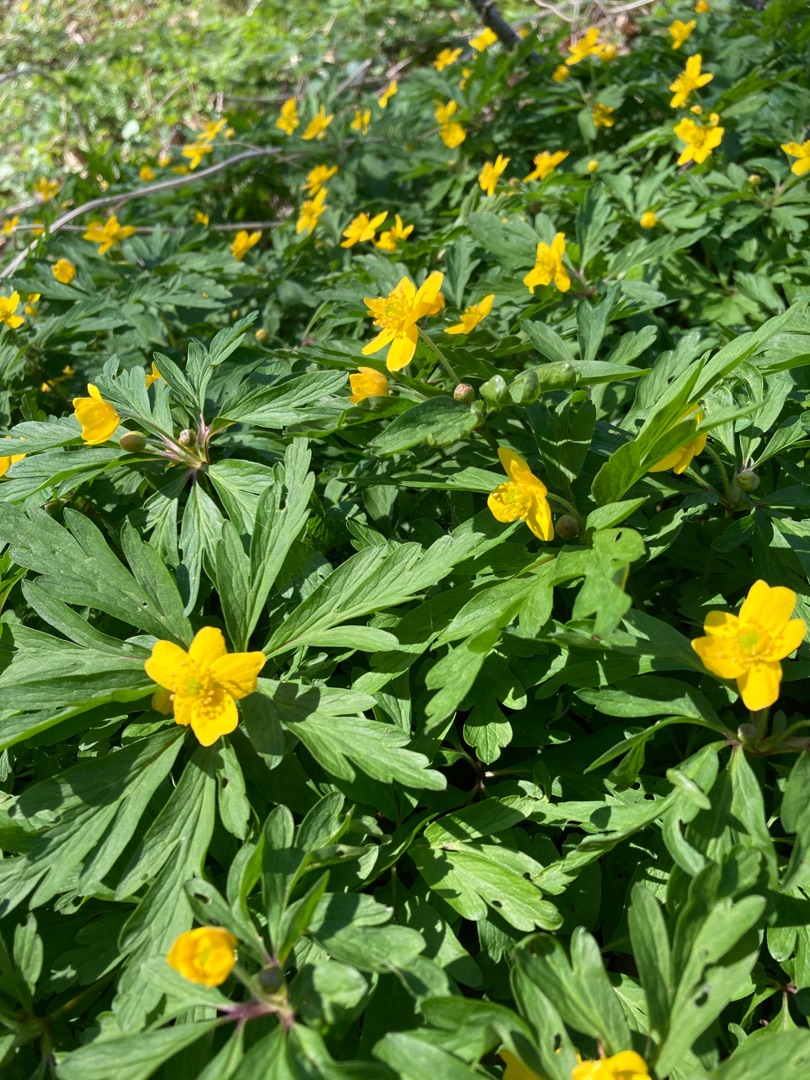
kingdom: Plantae
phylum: Tracheophyta
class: Magnoliopsida
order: Ranunculales
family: Ranunculaceae
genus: Anemone
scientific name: Anemone ranunculoides
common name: Gul anemone
